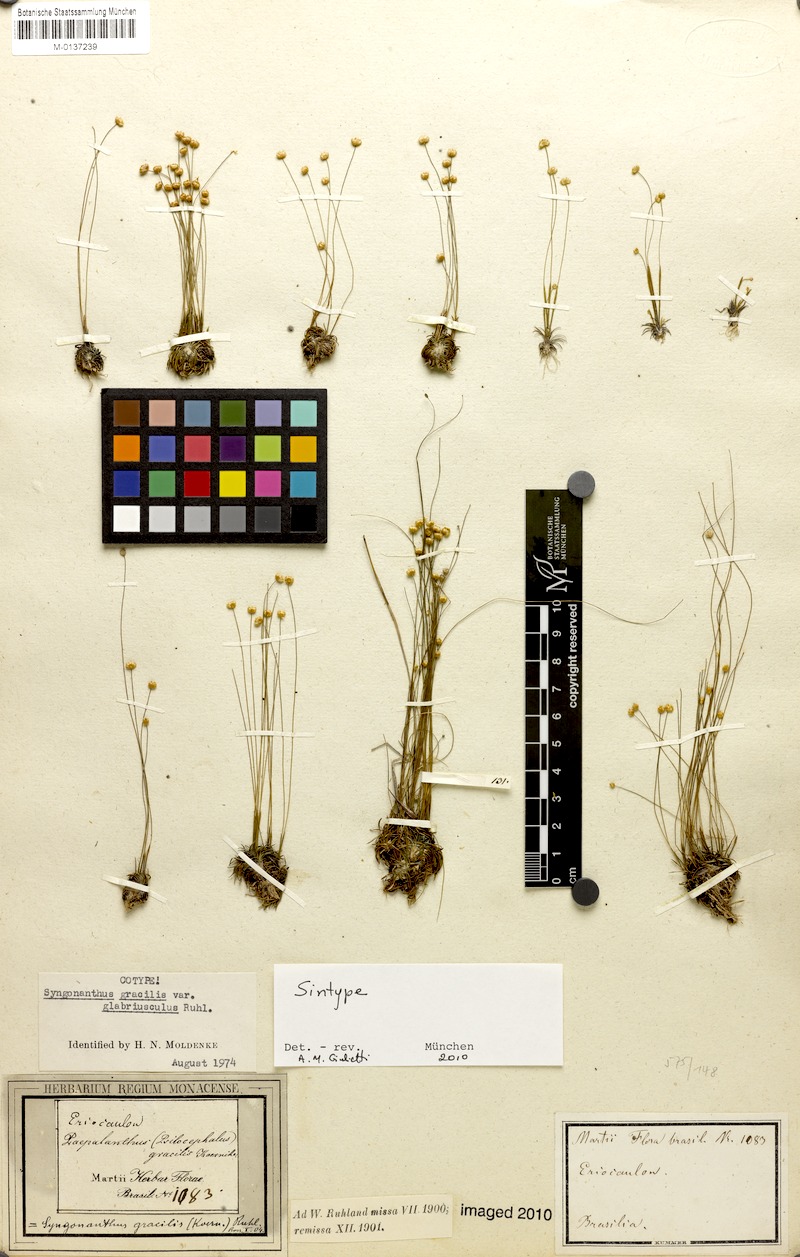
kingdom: Plantae
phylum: Tracheophyta
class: Liliopsida
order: Poales
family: Eriocaulaceae
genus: Syngonanthus
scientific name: Syngonanthus gracilis
